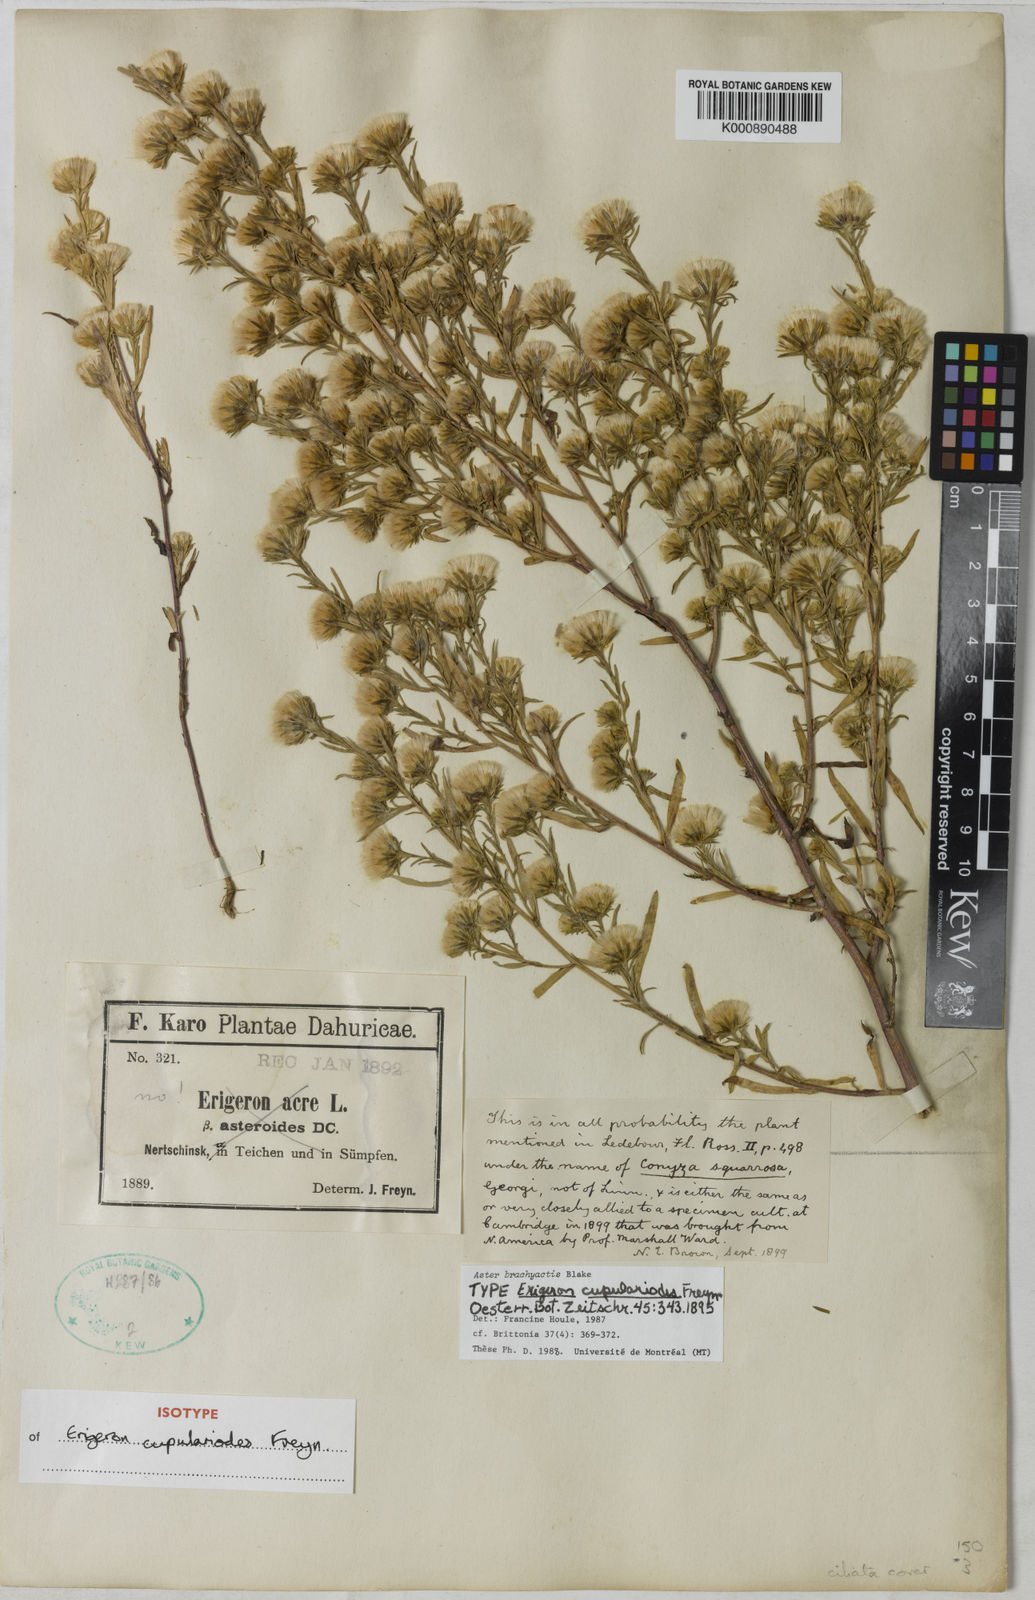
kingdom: Plantae
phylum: Tracheophyta
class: Magnoliopsida
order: Asterales
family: Asteraceae
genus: Symphyotrichum
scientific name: Symphyotrichum ciliatum
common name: Rayless annual aster
